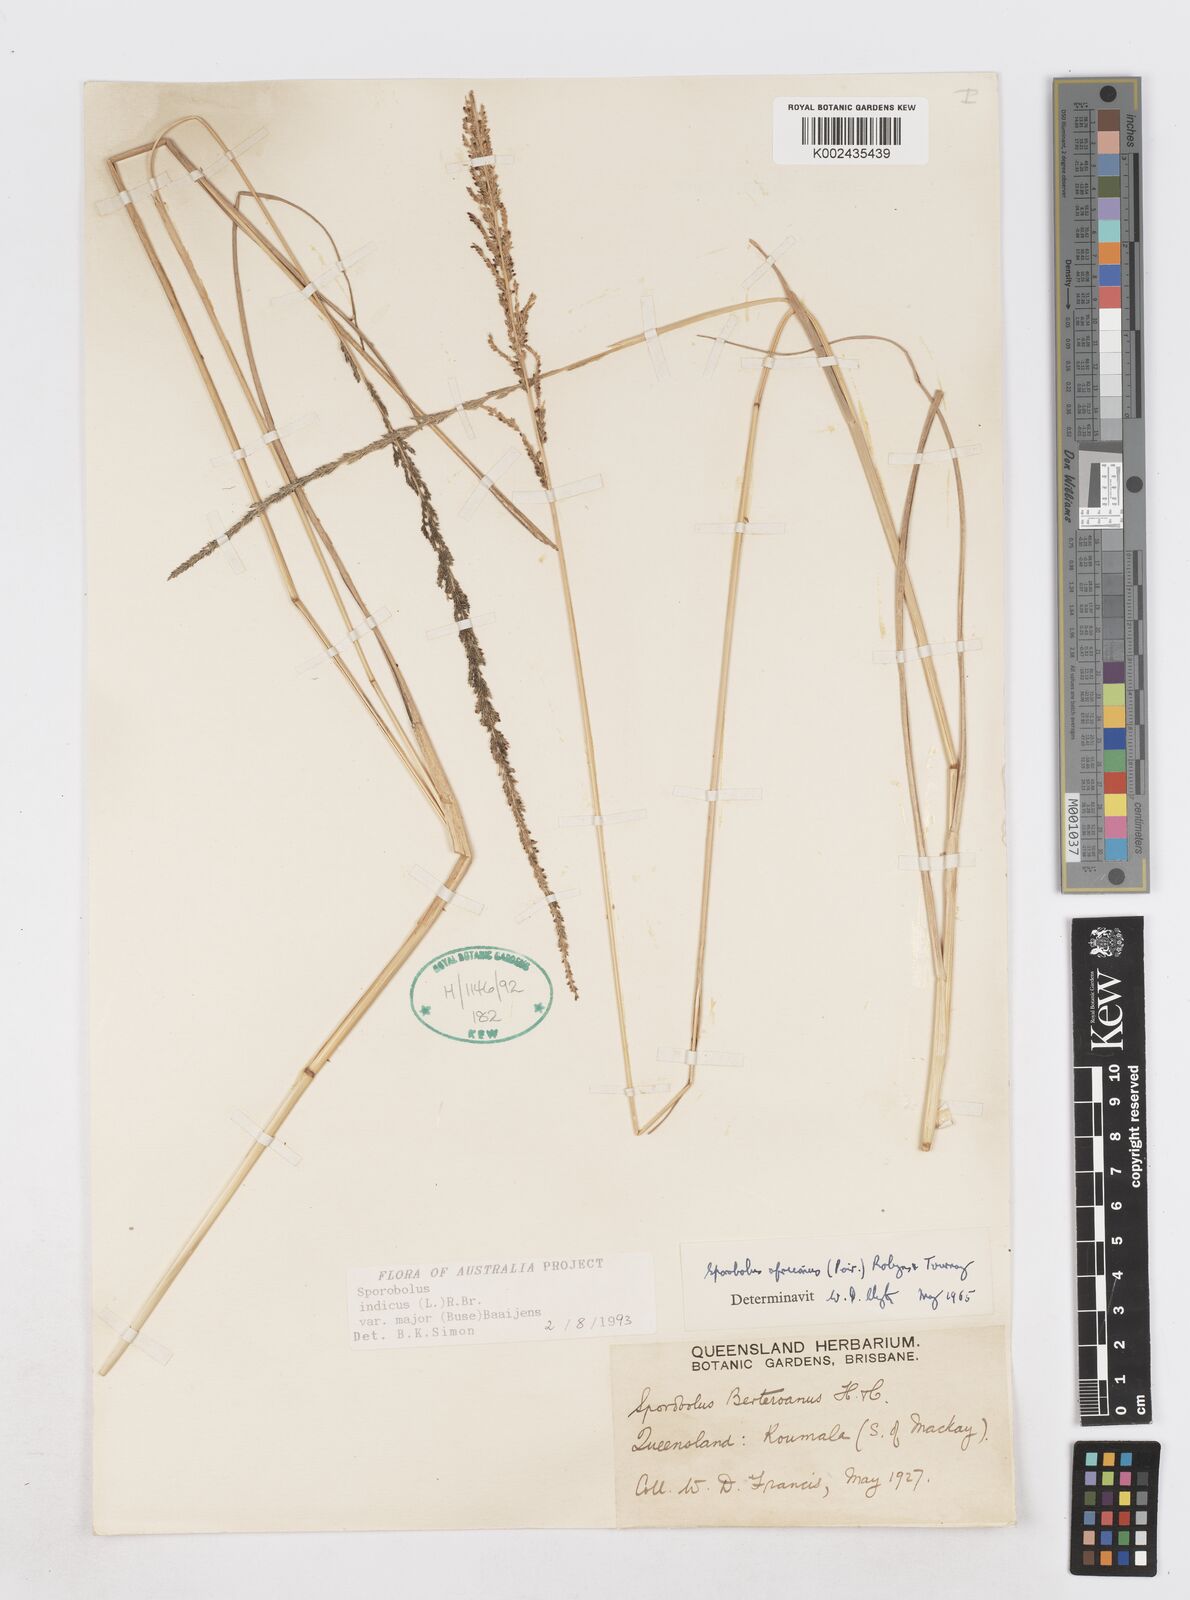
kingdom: Plantae
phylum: Tracheophyta
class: Liliopsida
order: Poales
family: Poaceae
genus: Sporobolus
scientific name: Sporobolus fertilis
